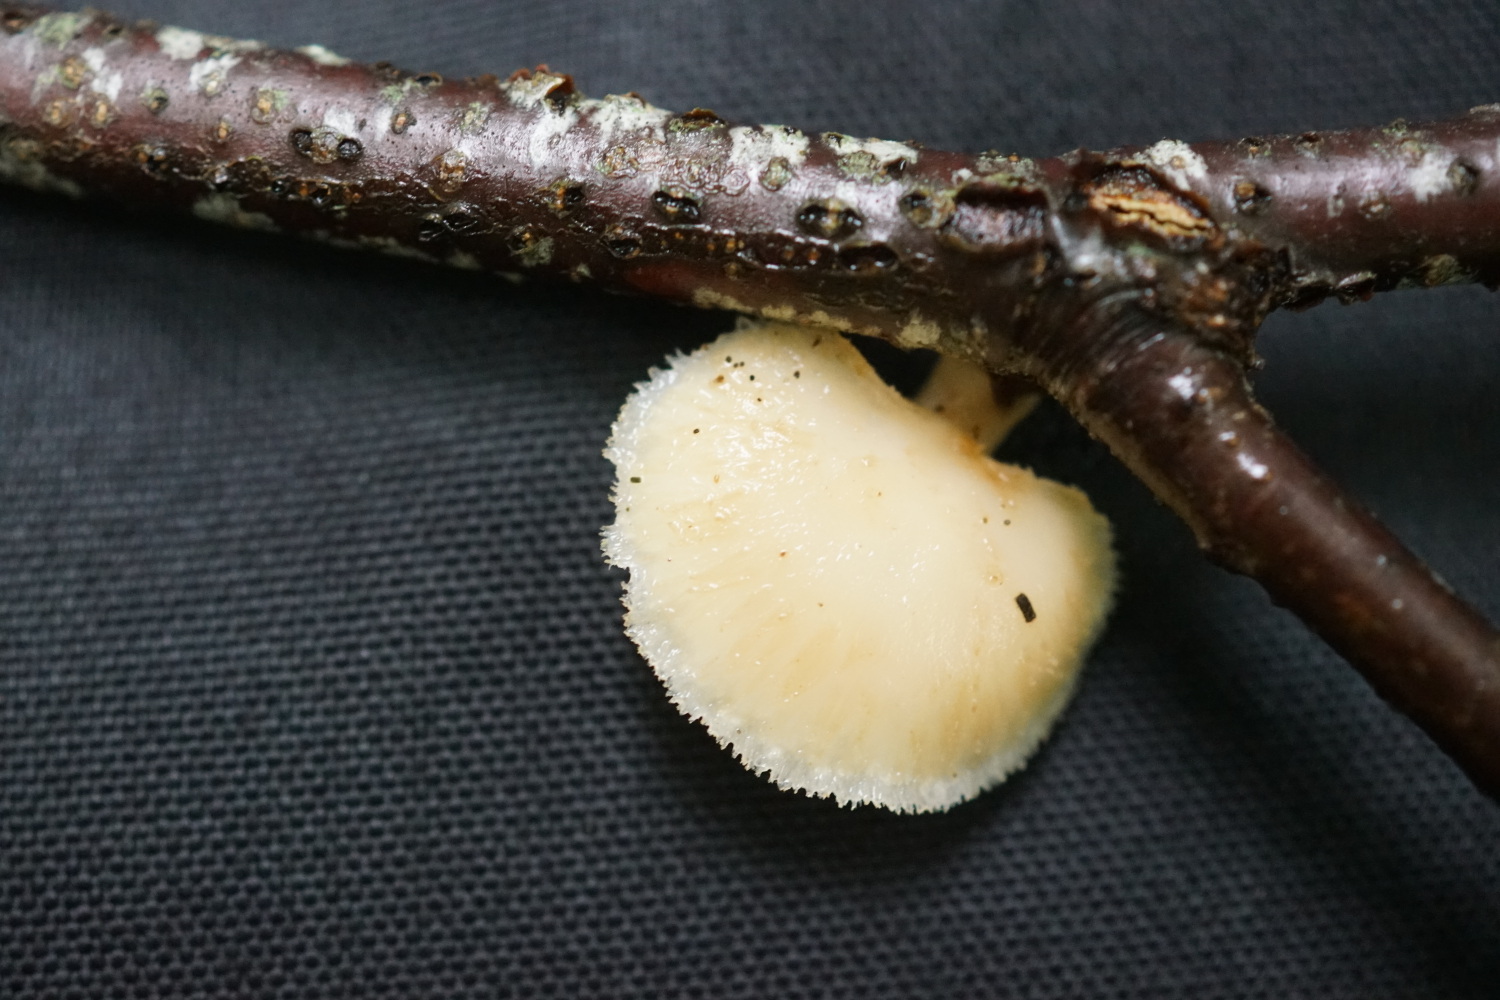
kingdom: Fungi
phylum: Basidiomycota
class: Agaricomycetes
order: Polyporales
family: Polyporaceae
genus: Polyporus
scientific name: Polyporus tuberaster
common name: knoldet stilkporesvamp
